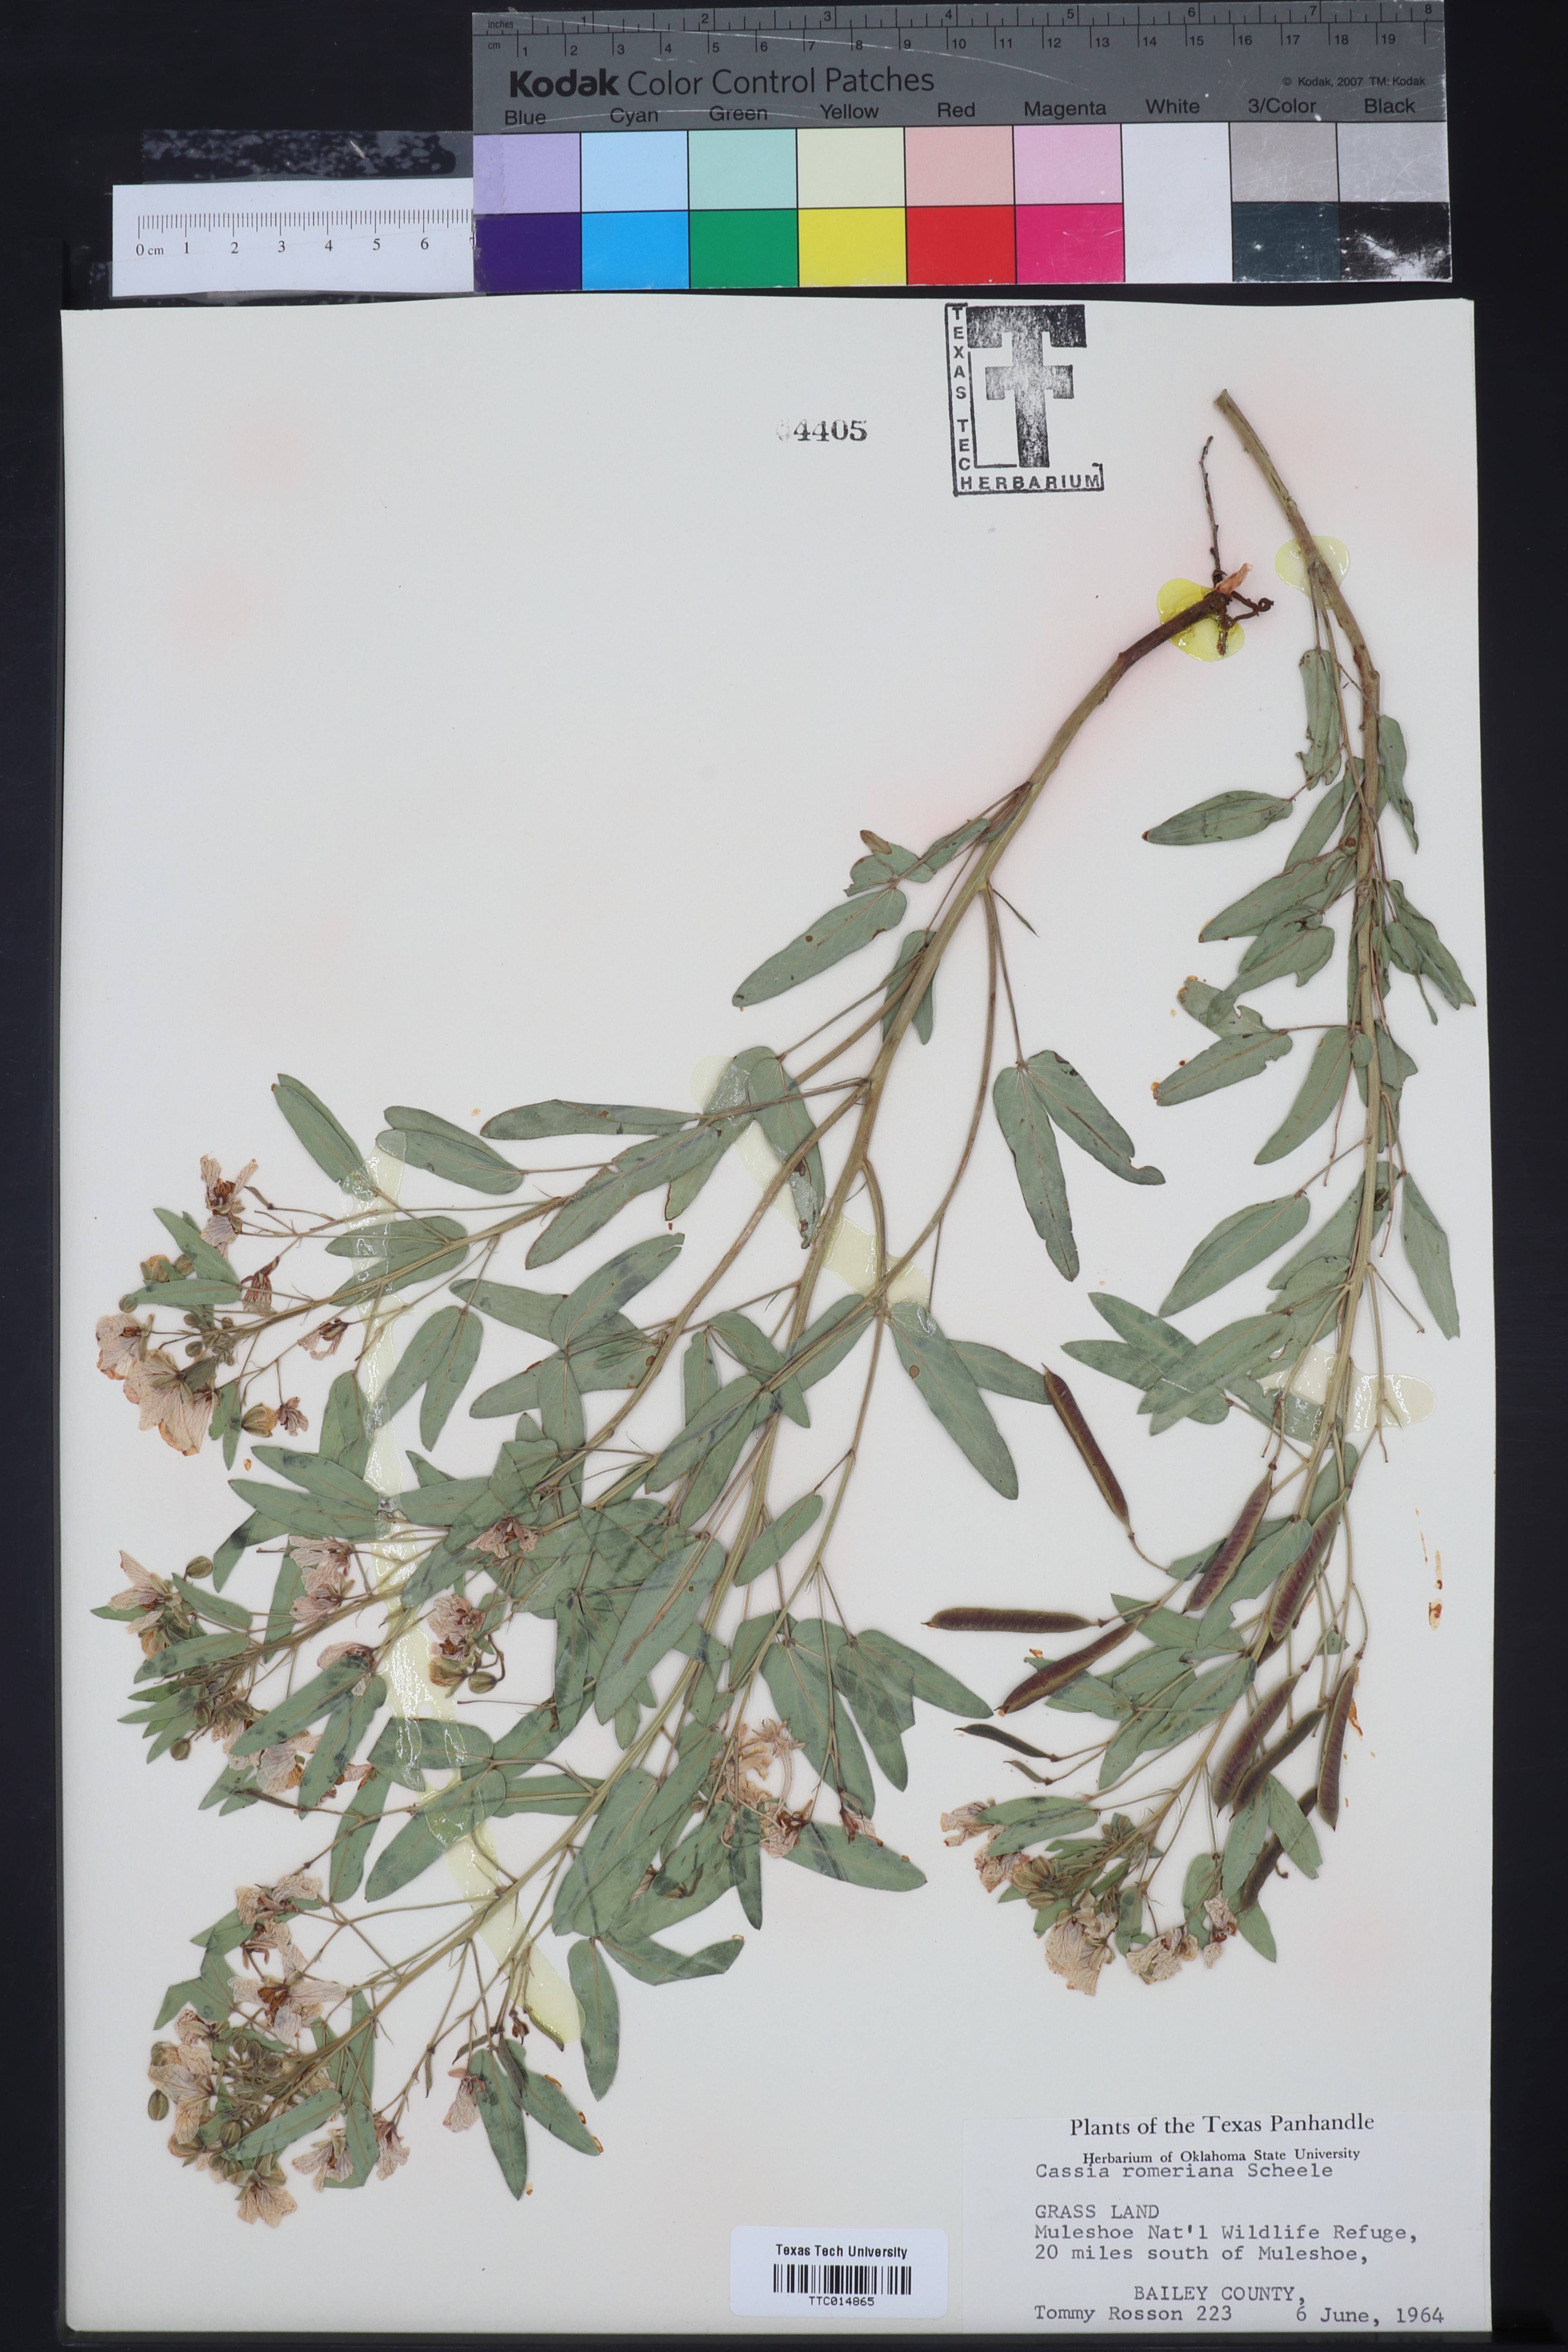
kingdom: Plantae
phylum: Tracheophyta
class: Magnoliopsida
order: Fabales
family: Fabaceae
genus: Senna
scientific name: Senna roemeriana
